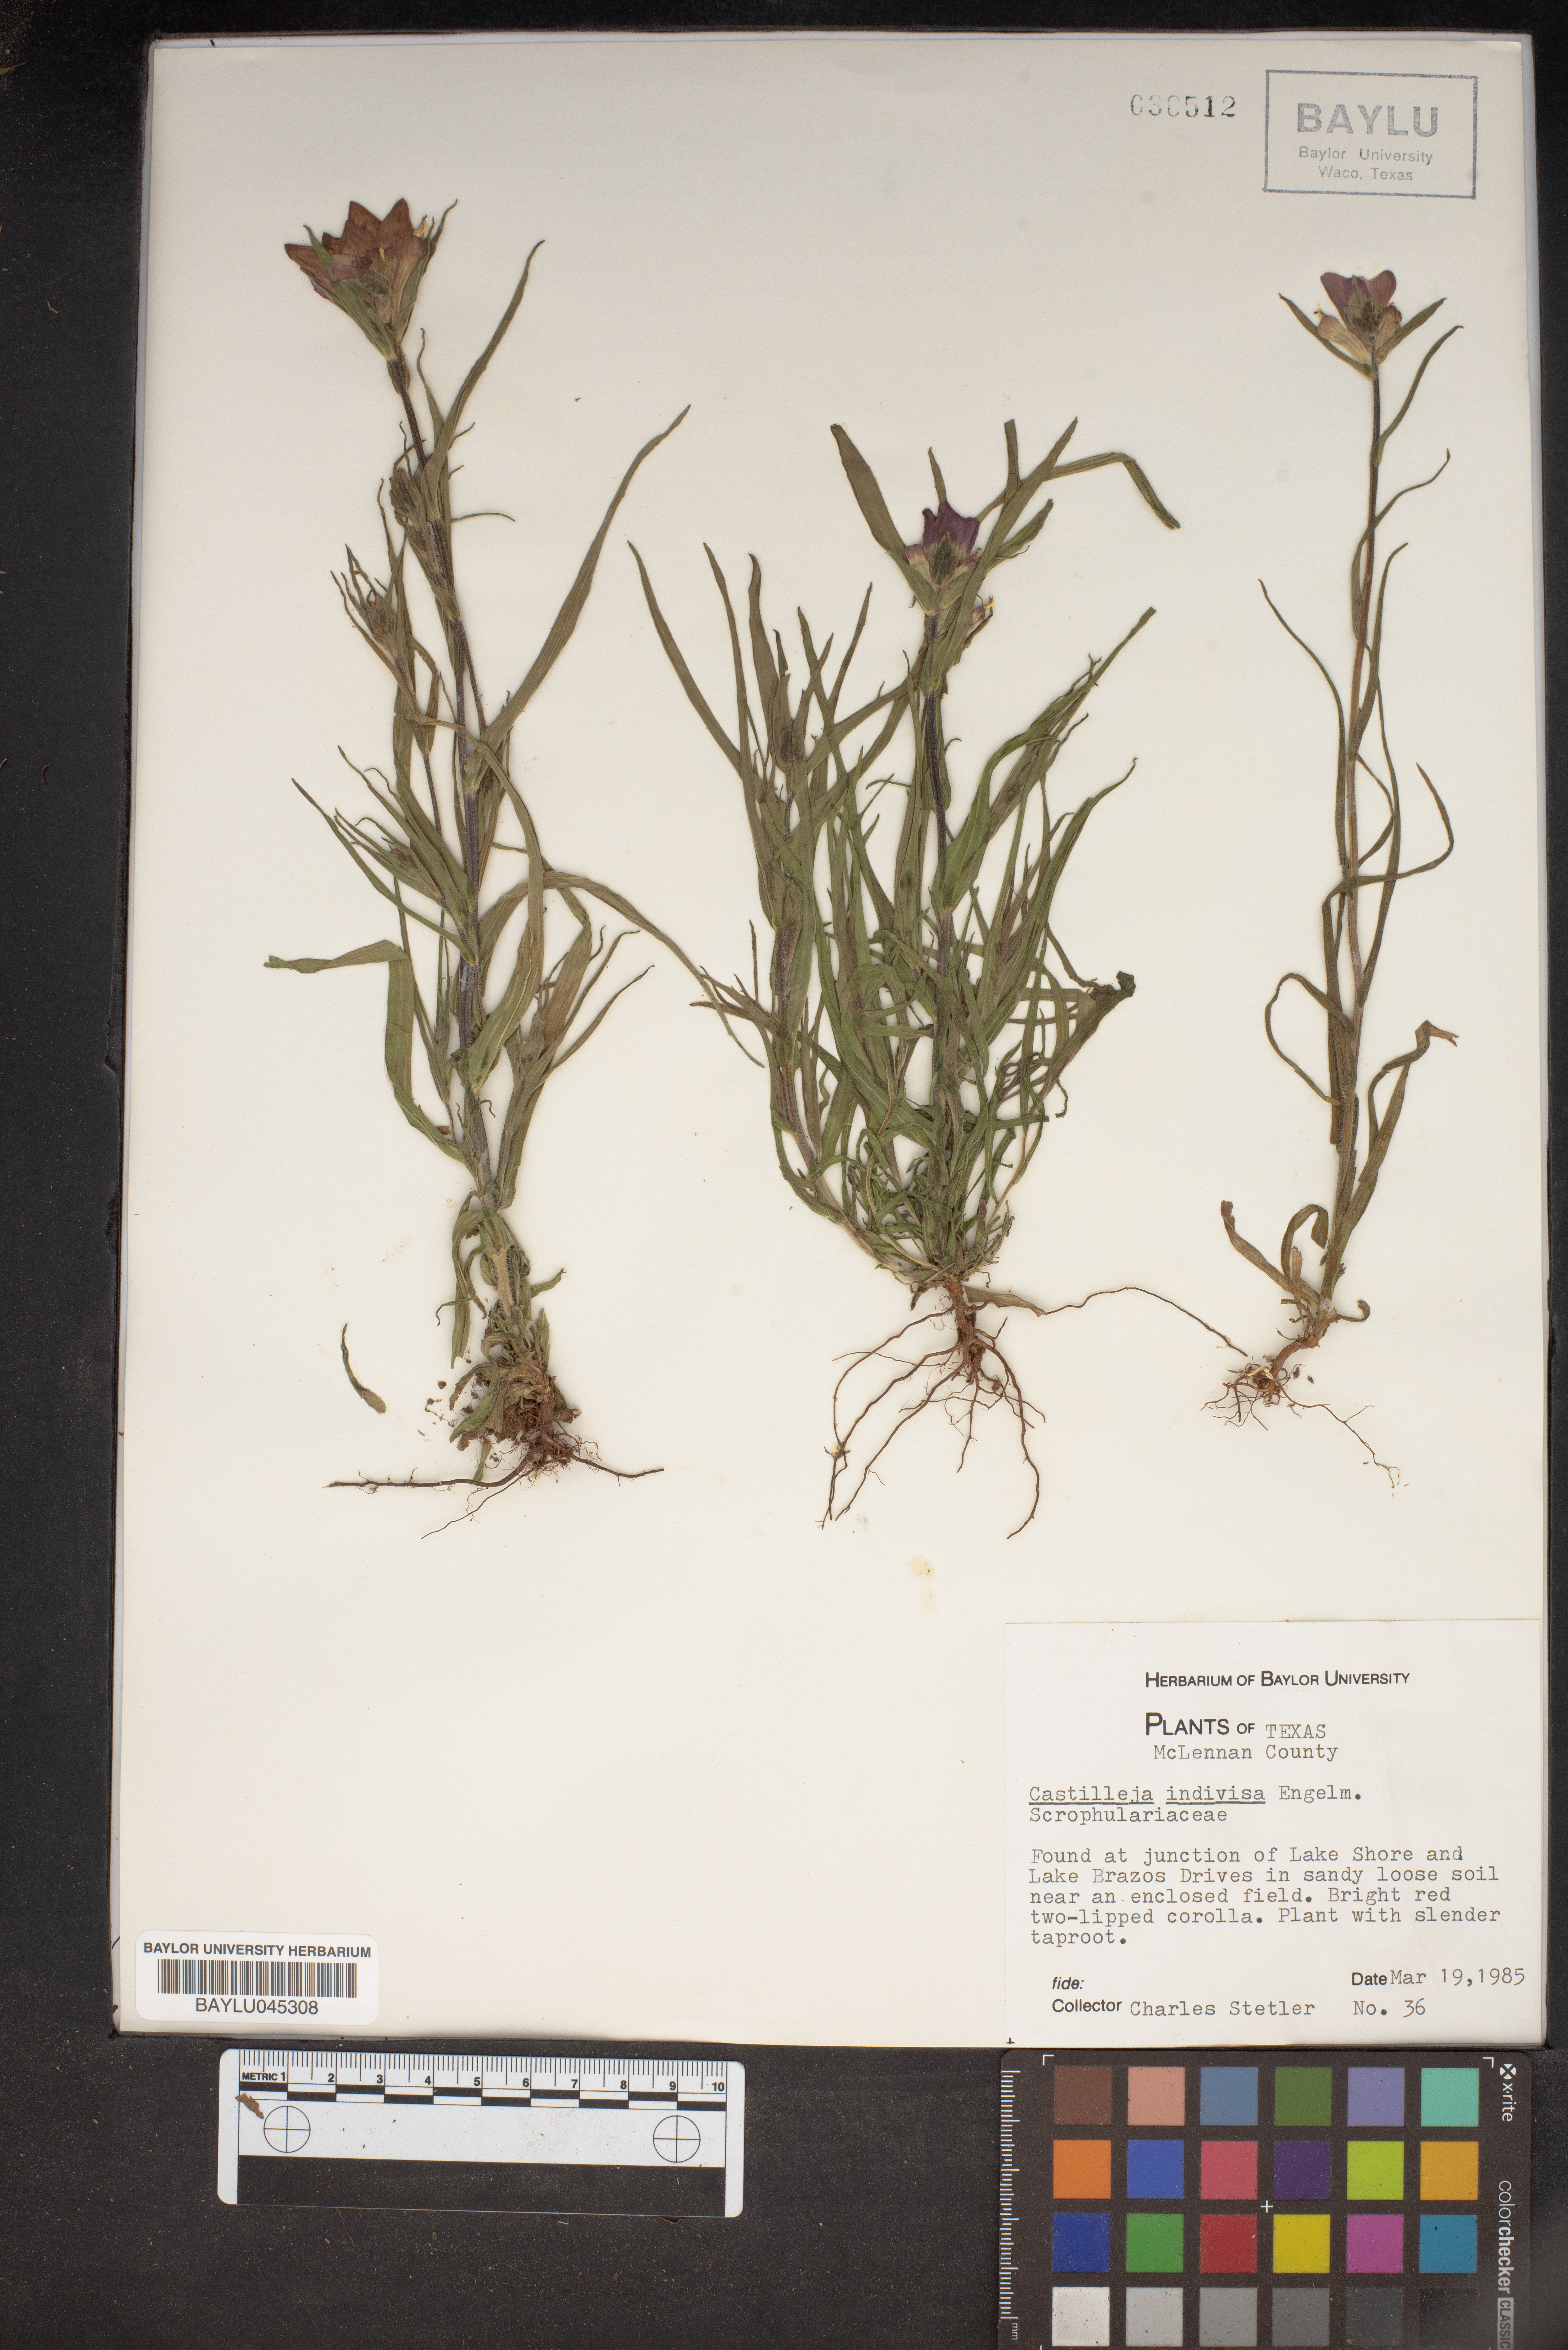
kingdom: Plantae
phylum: Tracheophyta
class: Magnoliopsida
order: Lamiales
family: Orobanchaceae
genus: Castilleja
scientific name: Castilleja indivisa
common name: Texas paintbrush
